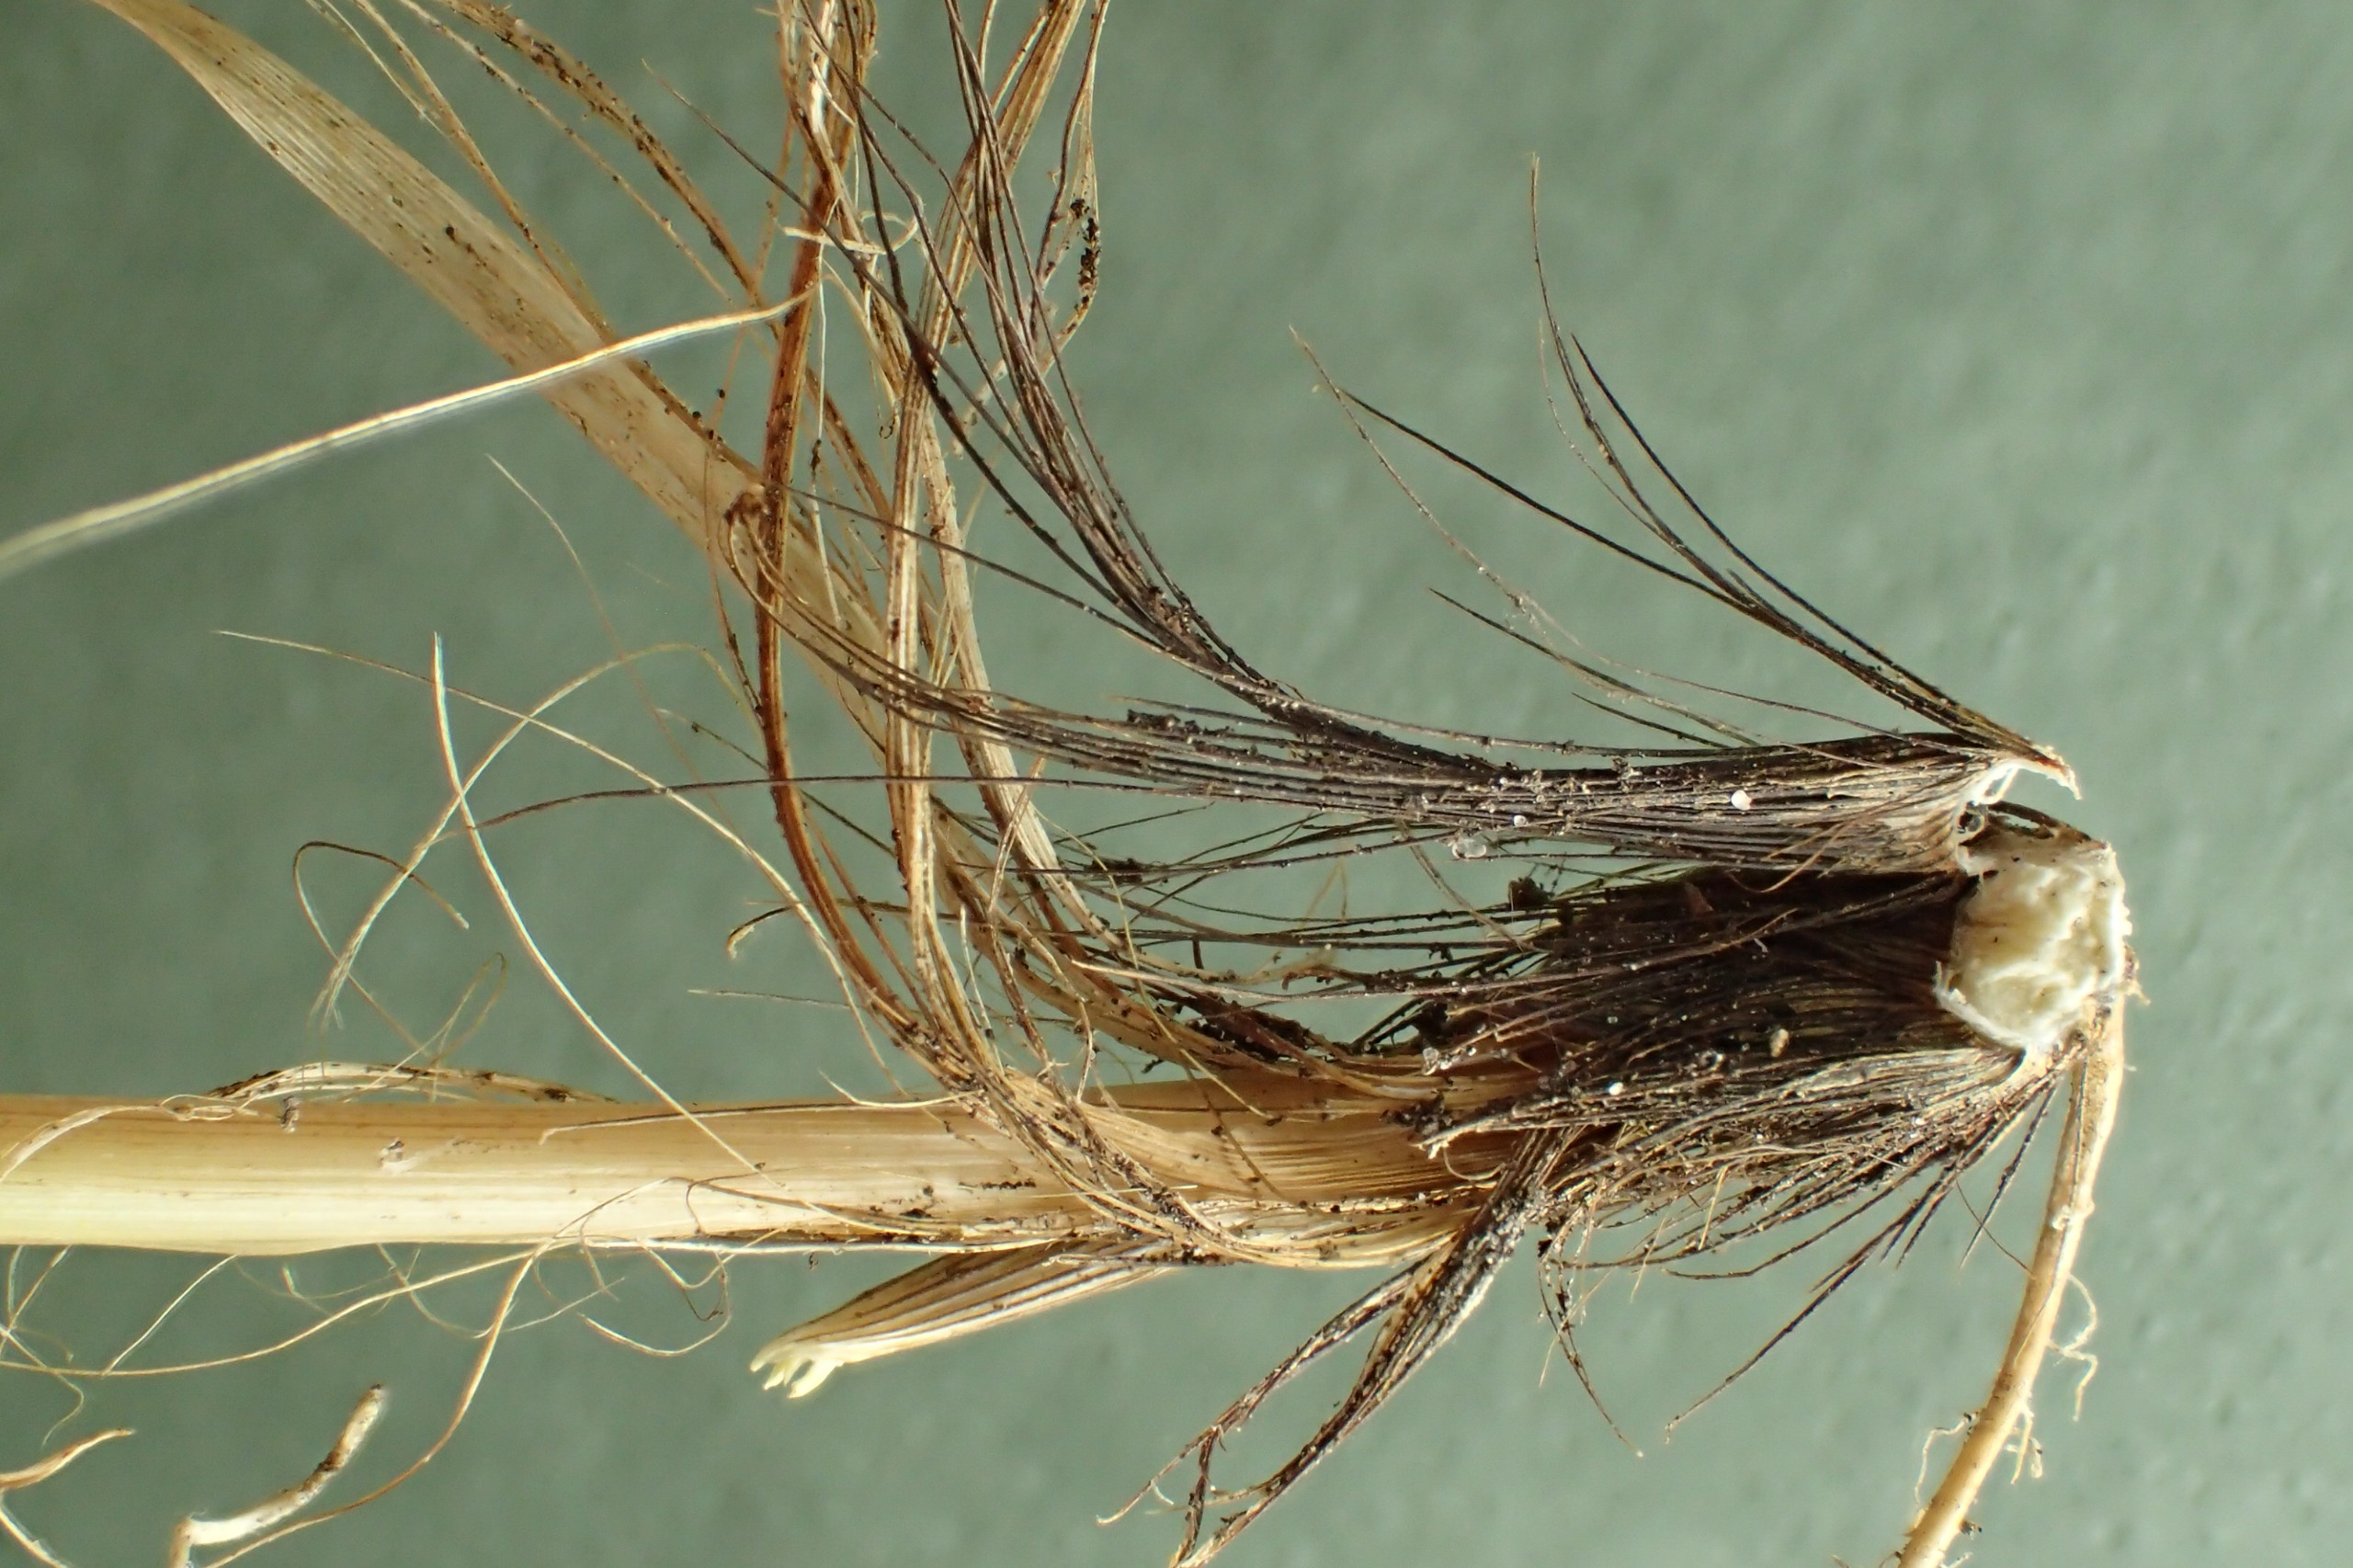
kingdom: Plantae
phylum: Tracheophyta
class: Liliopsida
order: Poales
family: Cyperaceae
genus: Carex
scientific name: Carex divulsa
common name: Mellembrudt star
